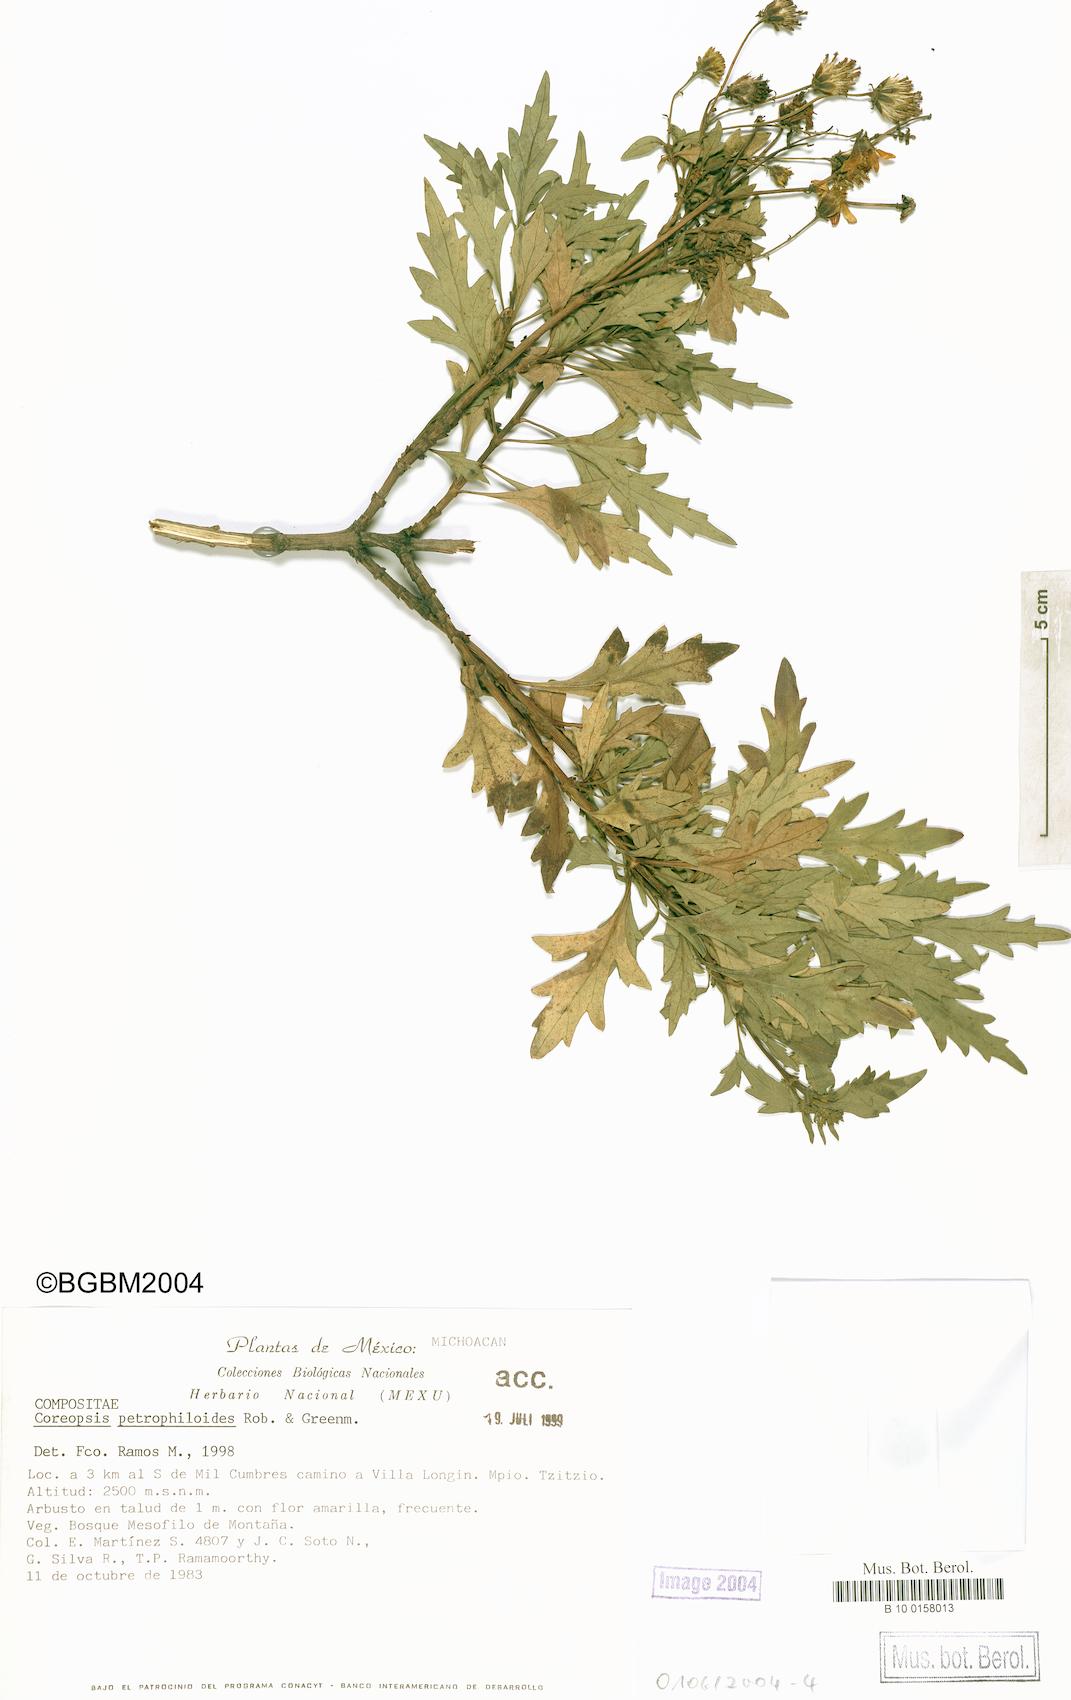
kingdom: Plantae
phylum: Tracheophyta
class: Magnoliopsida
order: Asterales
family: Asteraceae
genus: Coreopsis
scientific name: Coreopsis petrophiloides
